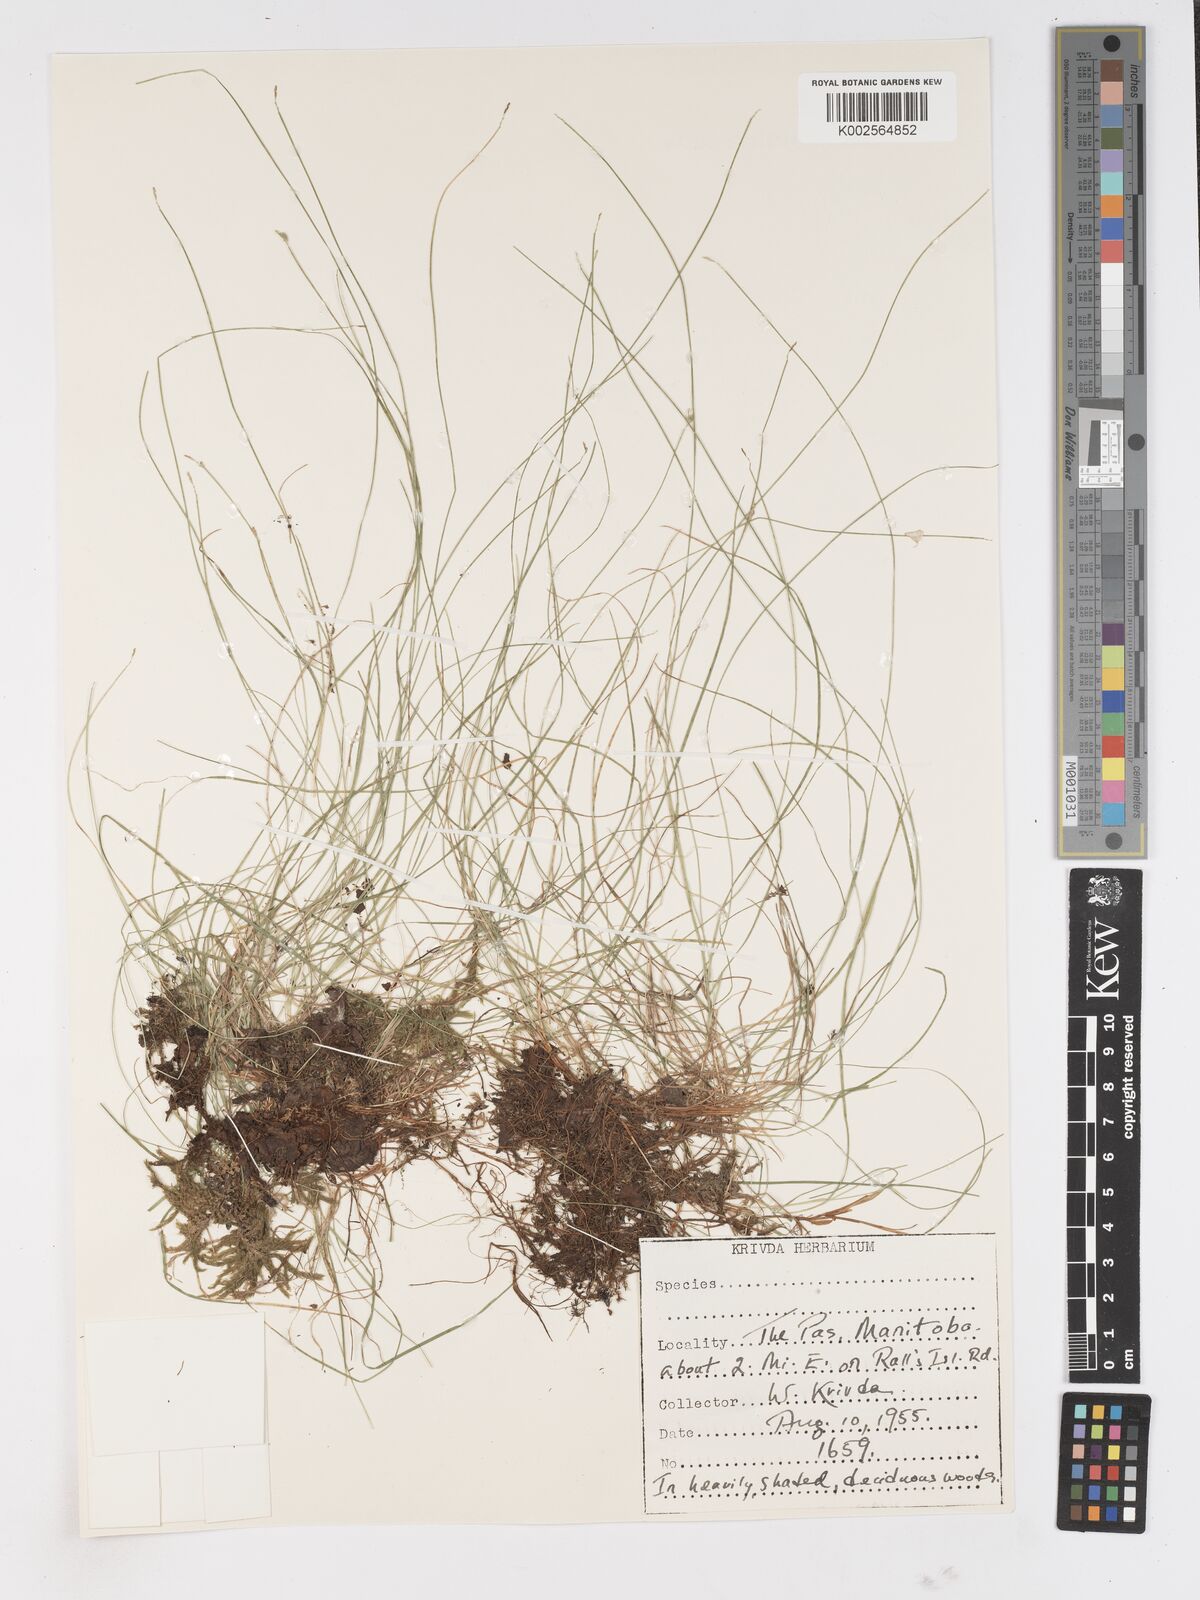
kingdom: Plantae
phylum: Tracheophyta
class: Liliopsida
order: Poales
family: Cyperaceae
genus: Carex
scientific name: Carex
